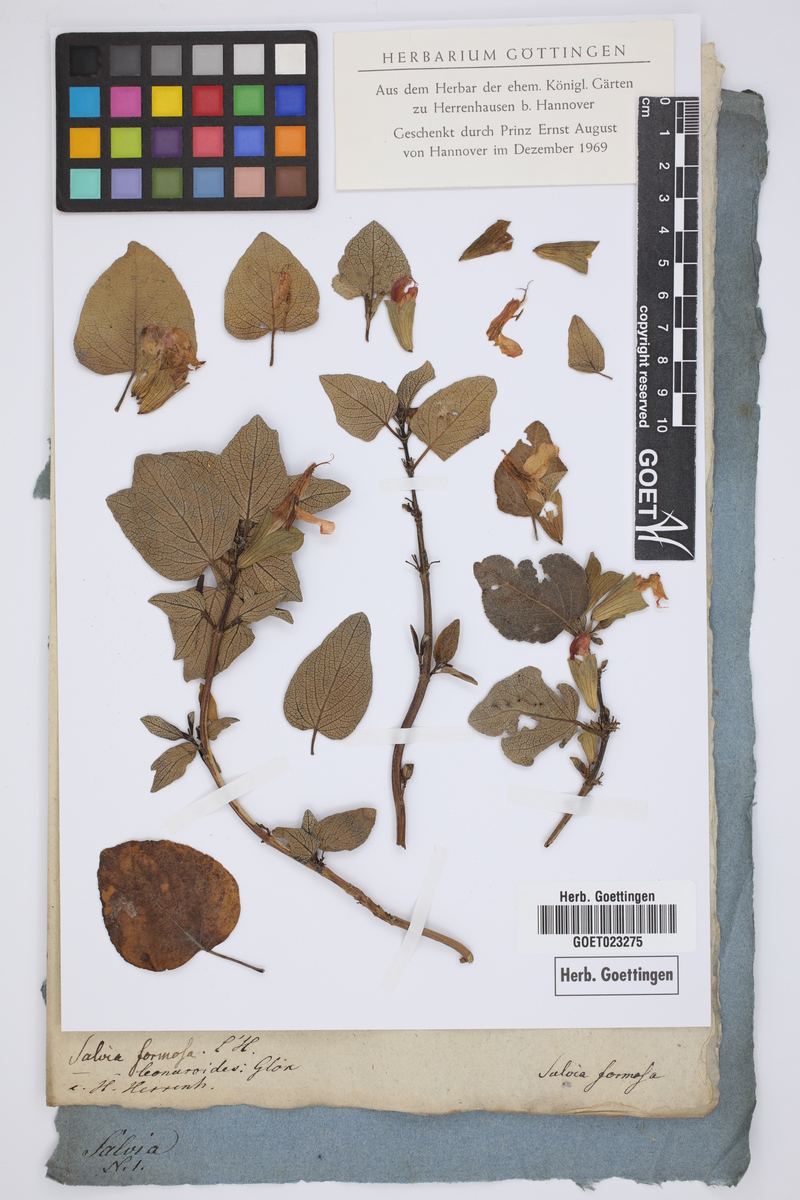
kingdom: Plantae
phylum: Tracheophyta
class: Magnoliopsida
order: Lamiales
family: Lamiaceae
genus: Salvia
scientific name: Salvia leonuroides
